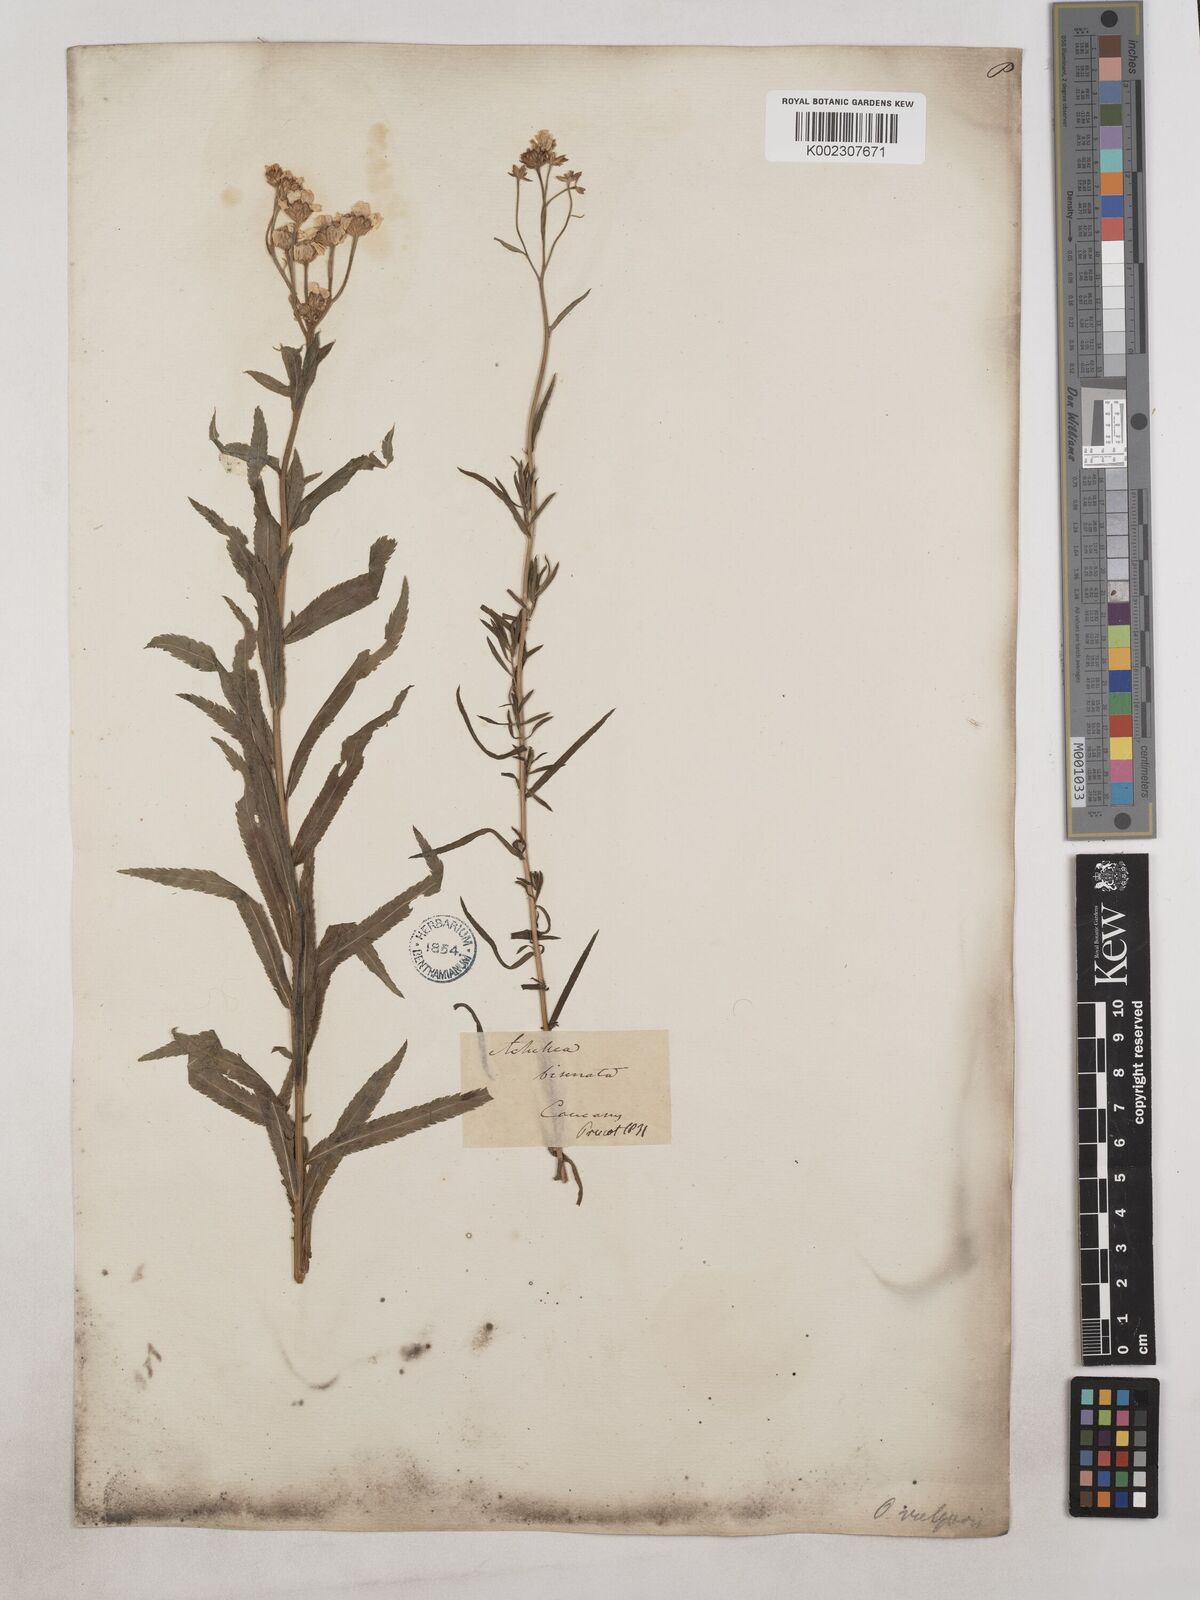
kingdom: Plantae
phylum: Tracheophyta
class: Magnoliopsida
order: Asterales
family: Asteraceae
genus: Achillea
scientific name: Achillea biserrata
